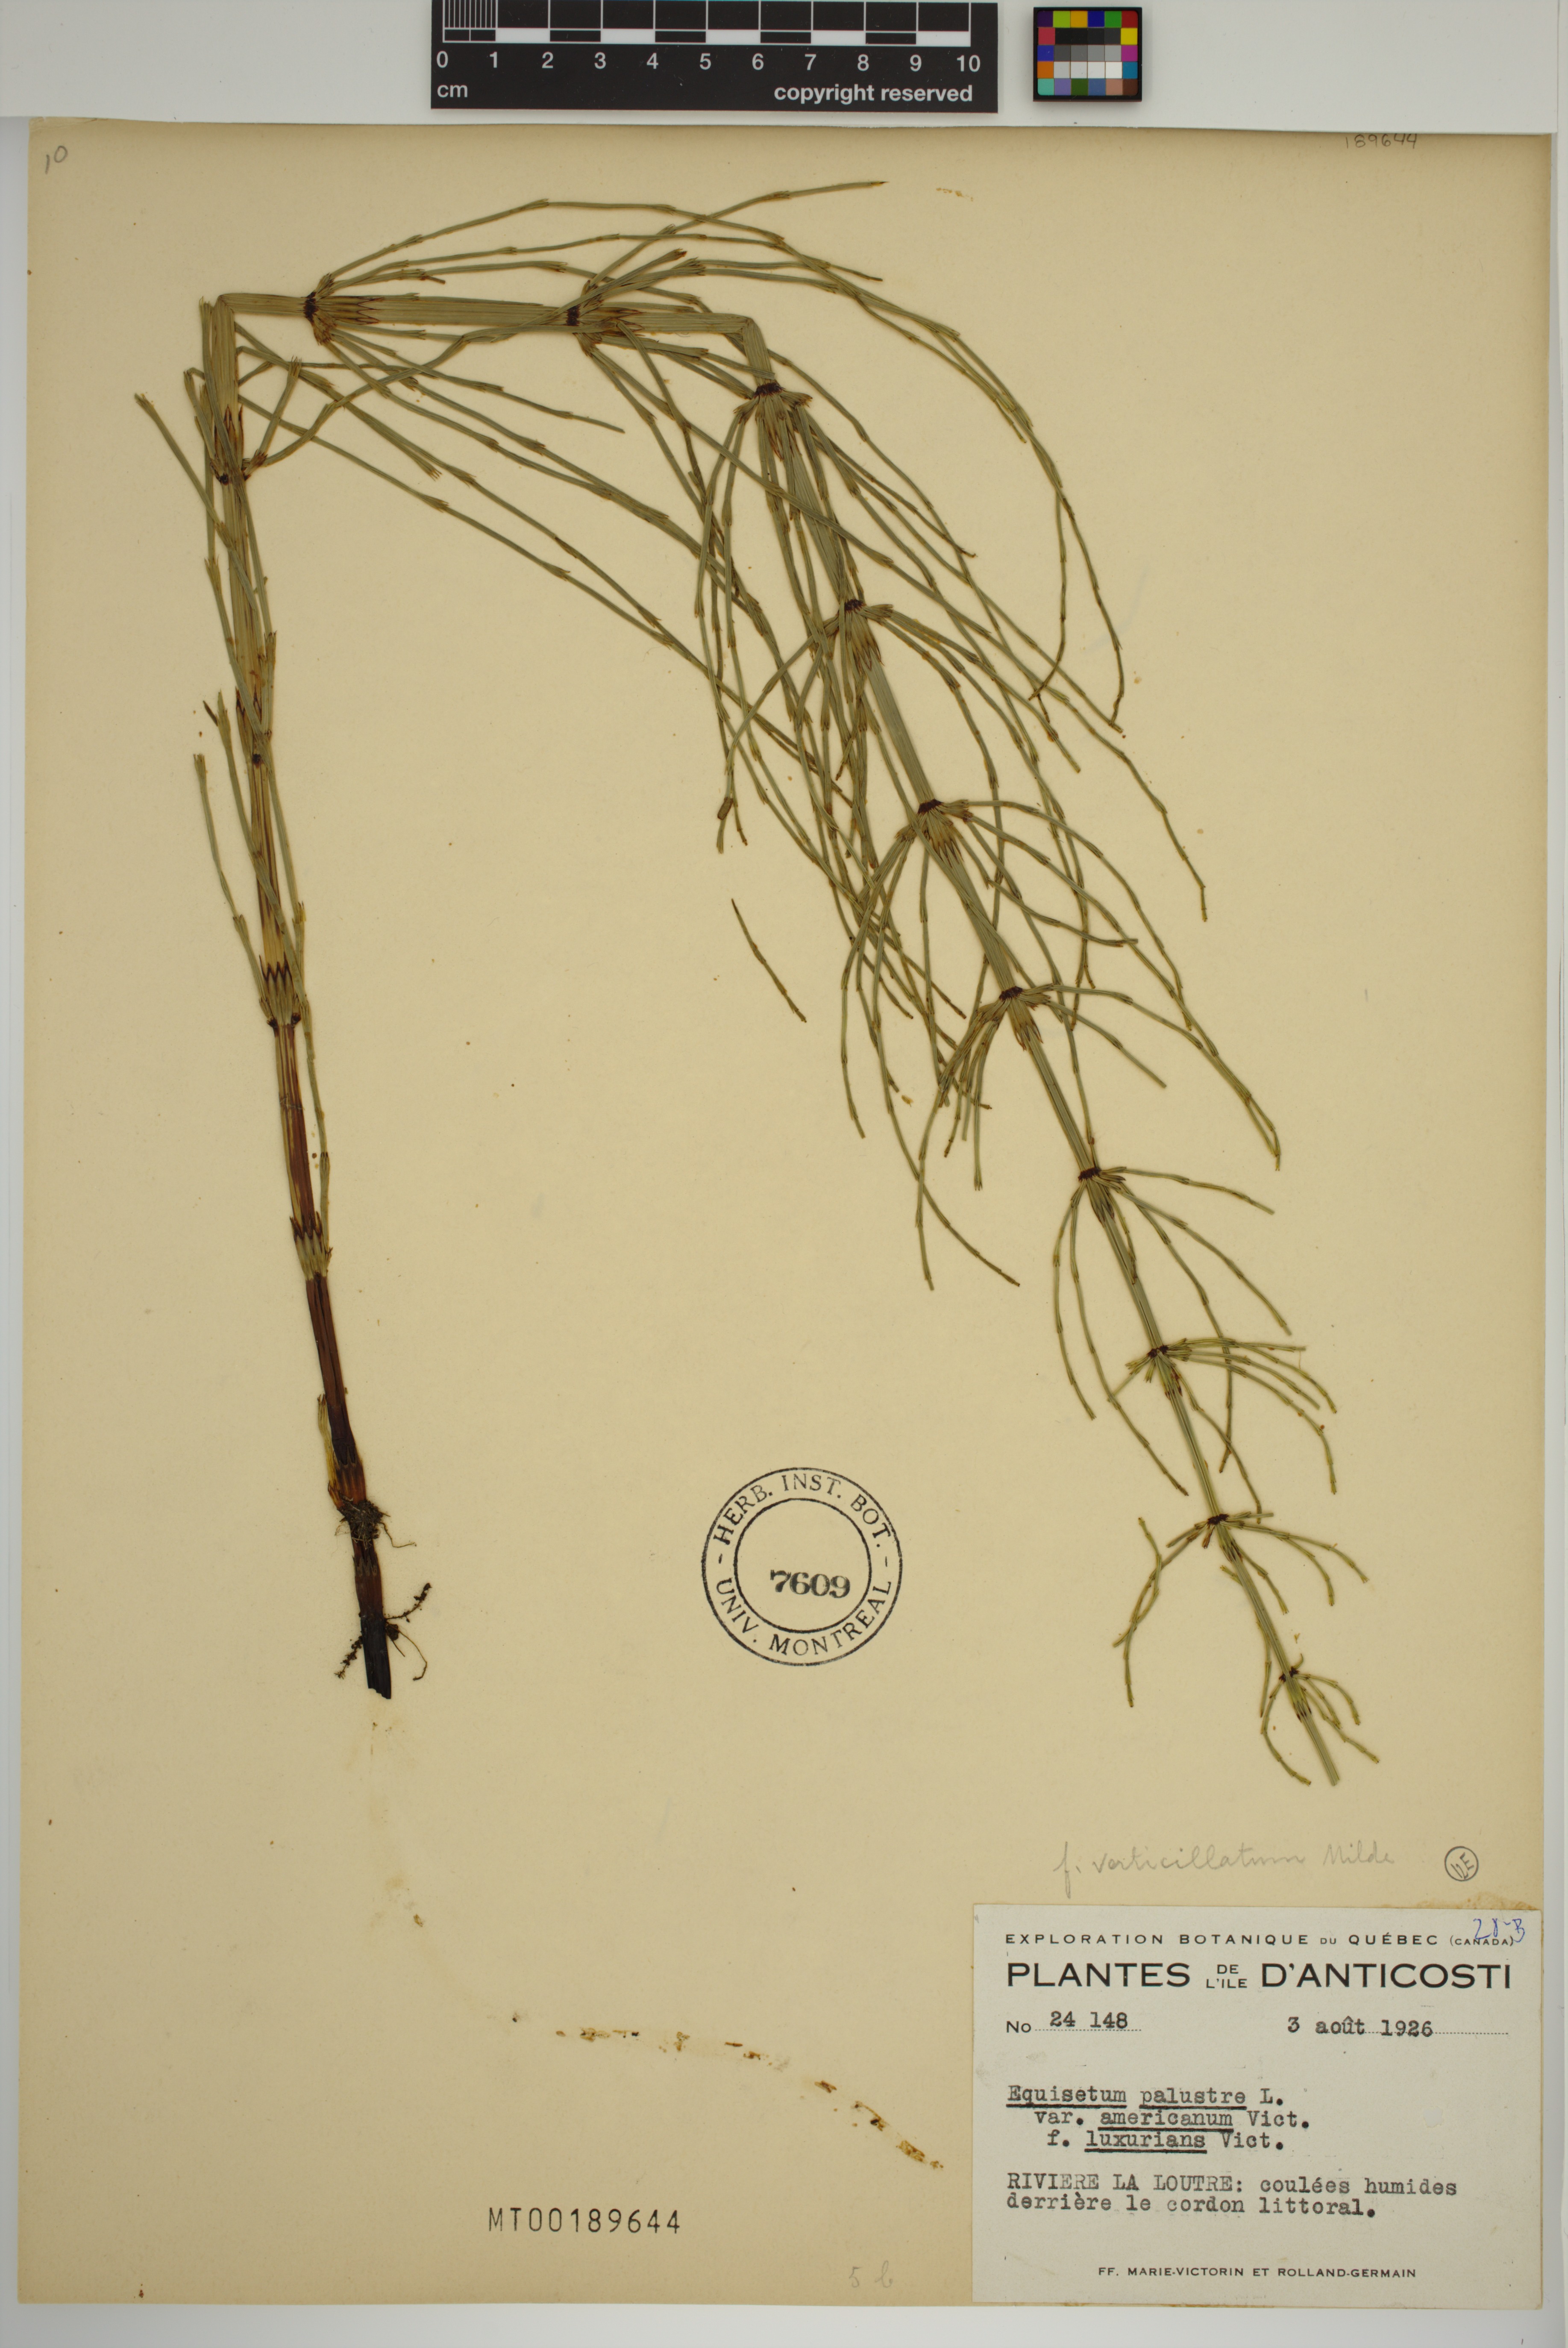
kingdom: Plantae
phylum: Tracheophyta
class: Polypodiopsida
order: Equisetales
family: Equisetaceae
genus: Equisetum
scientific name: Equisetum palustre
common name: Marsh horsetail
